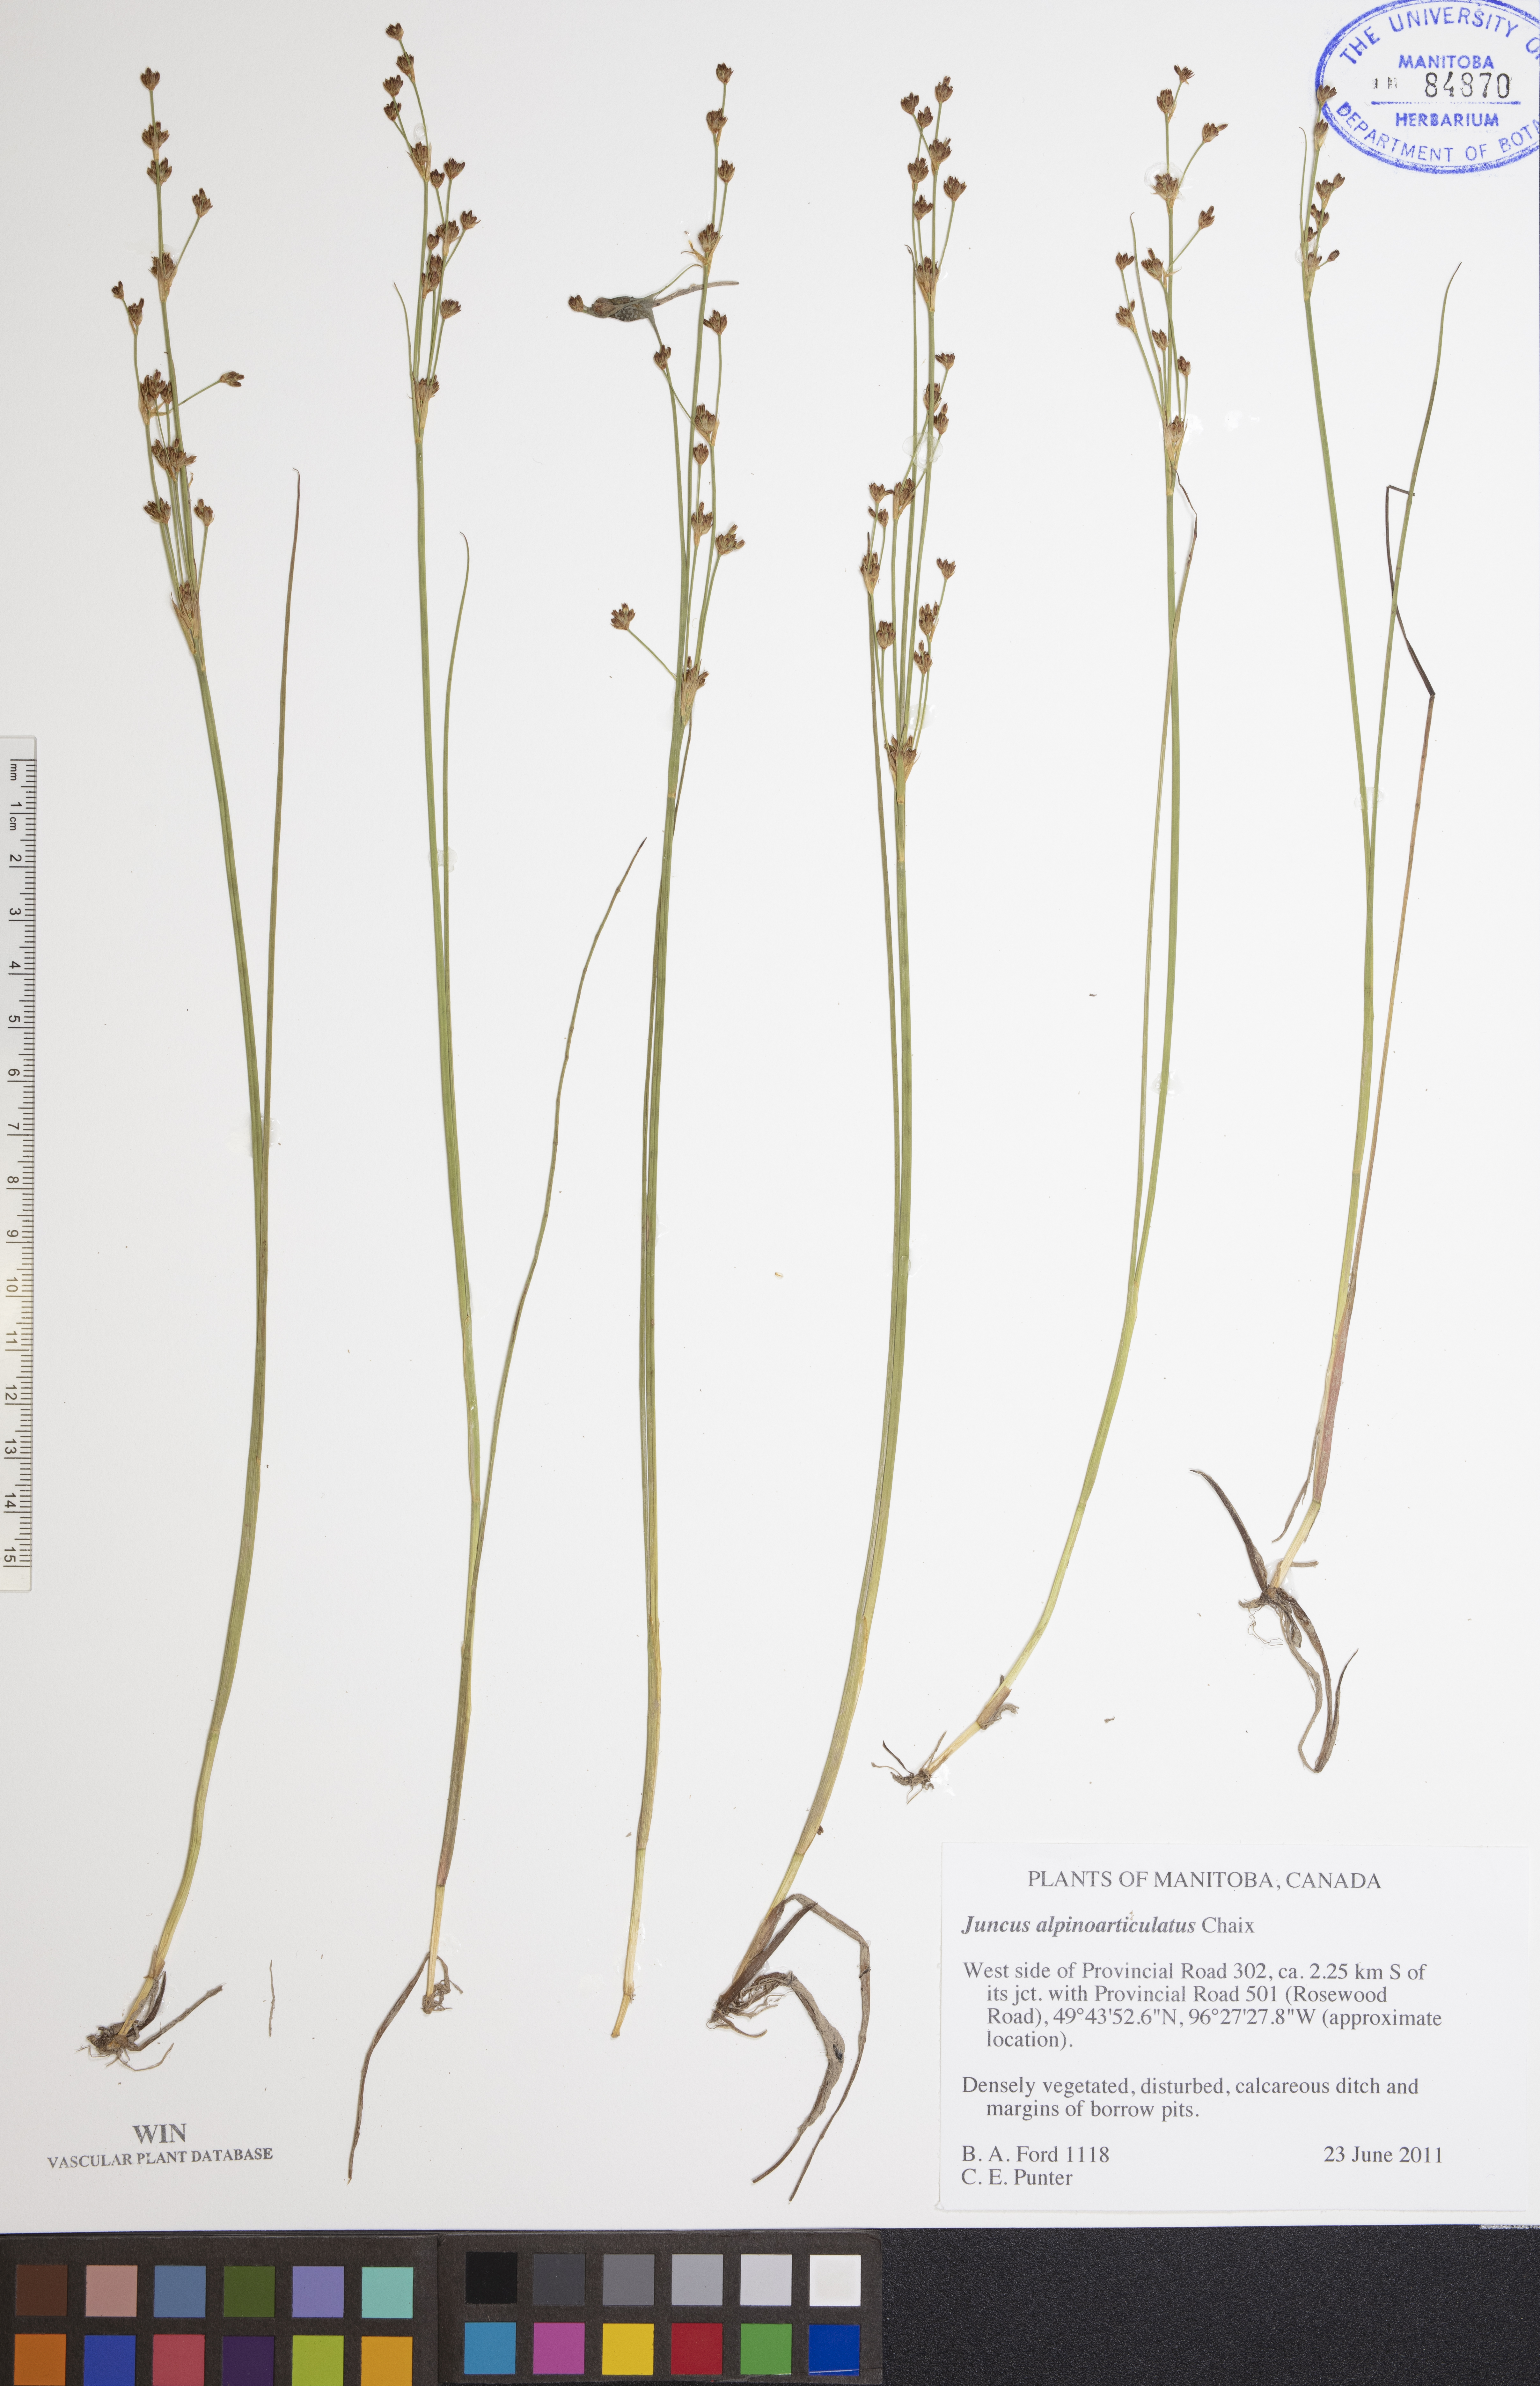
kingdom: Plantae
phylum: Tracheophyta
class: Liliopsida
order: Poales
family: Juncaceae
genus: Juncus
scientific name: Juncus alpinoarticulatus
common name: Alpine rush
